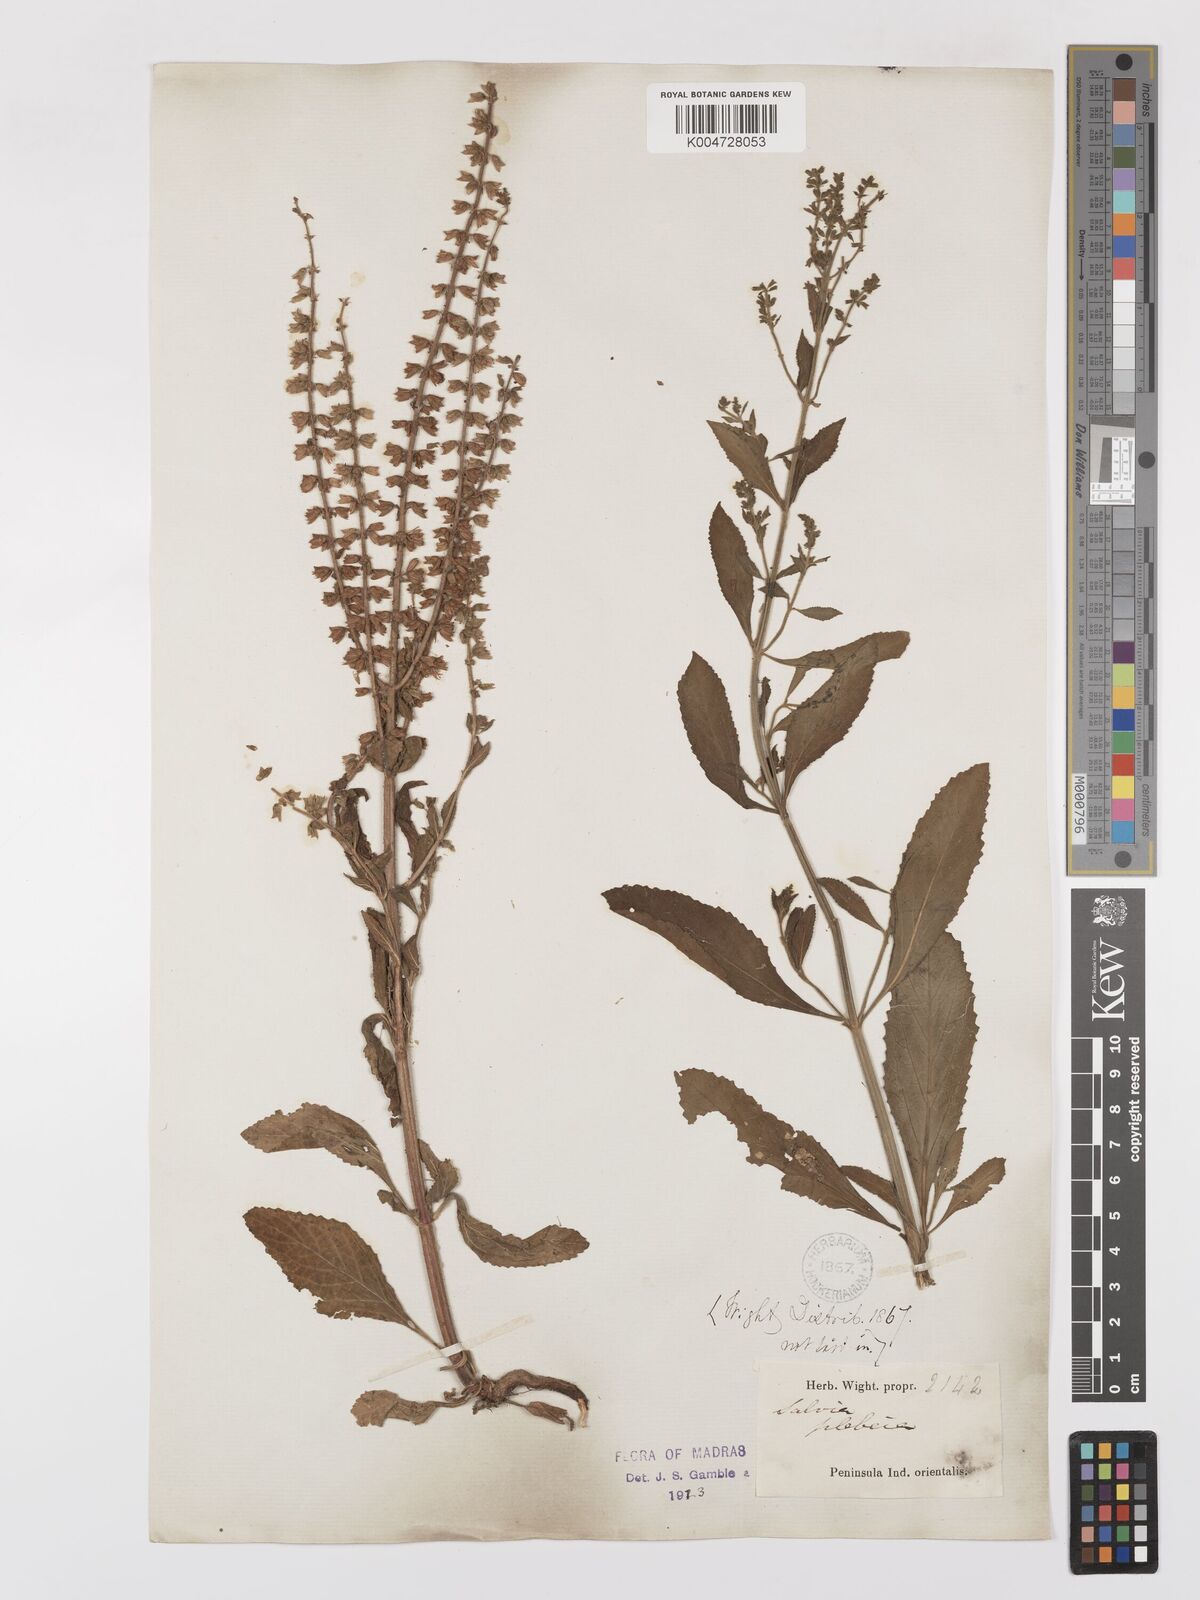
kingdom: Plantae
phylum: Tracheophyta
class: Magnoliopsida
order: Lamiales
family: Lamiaceae
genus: Salvia
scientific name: Salvia plebeia
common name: Australian sage
